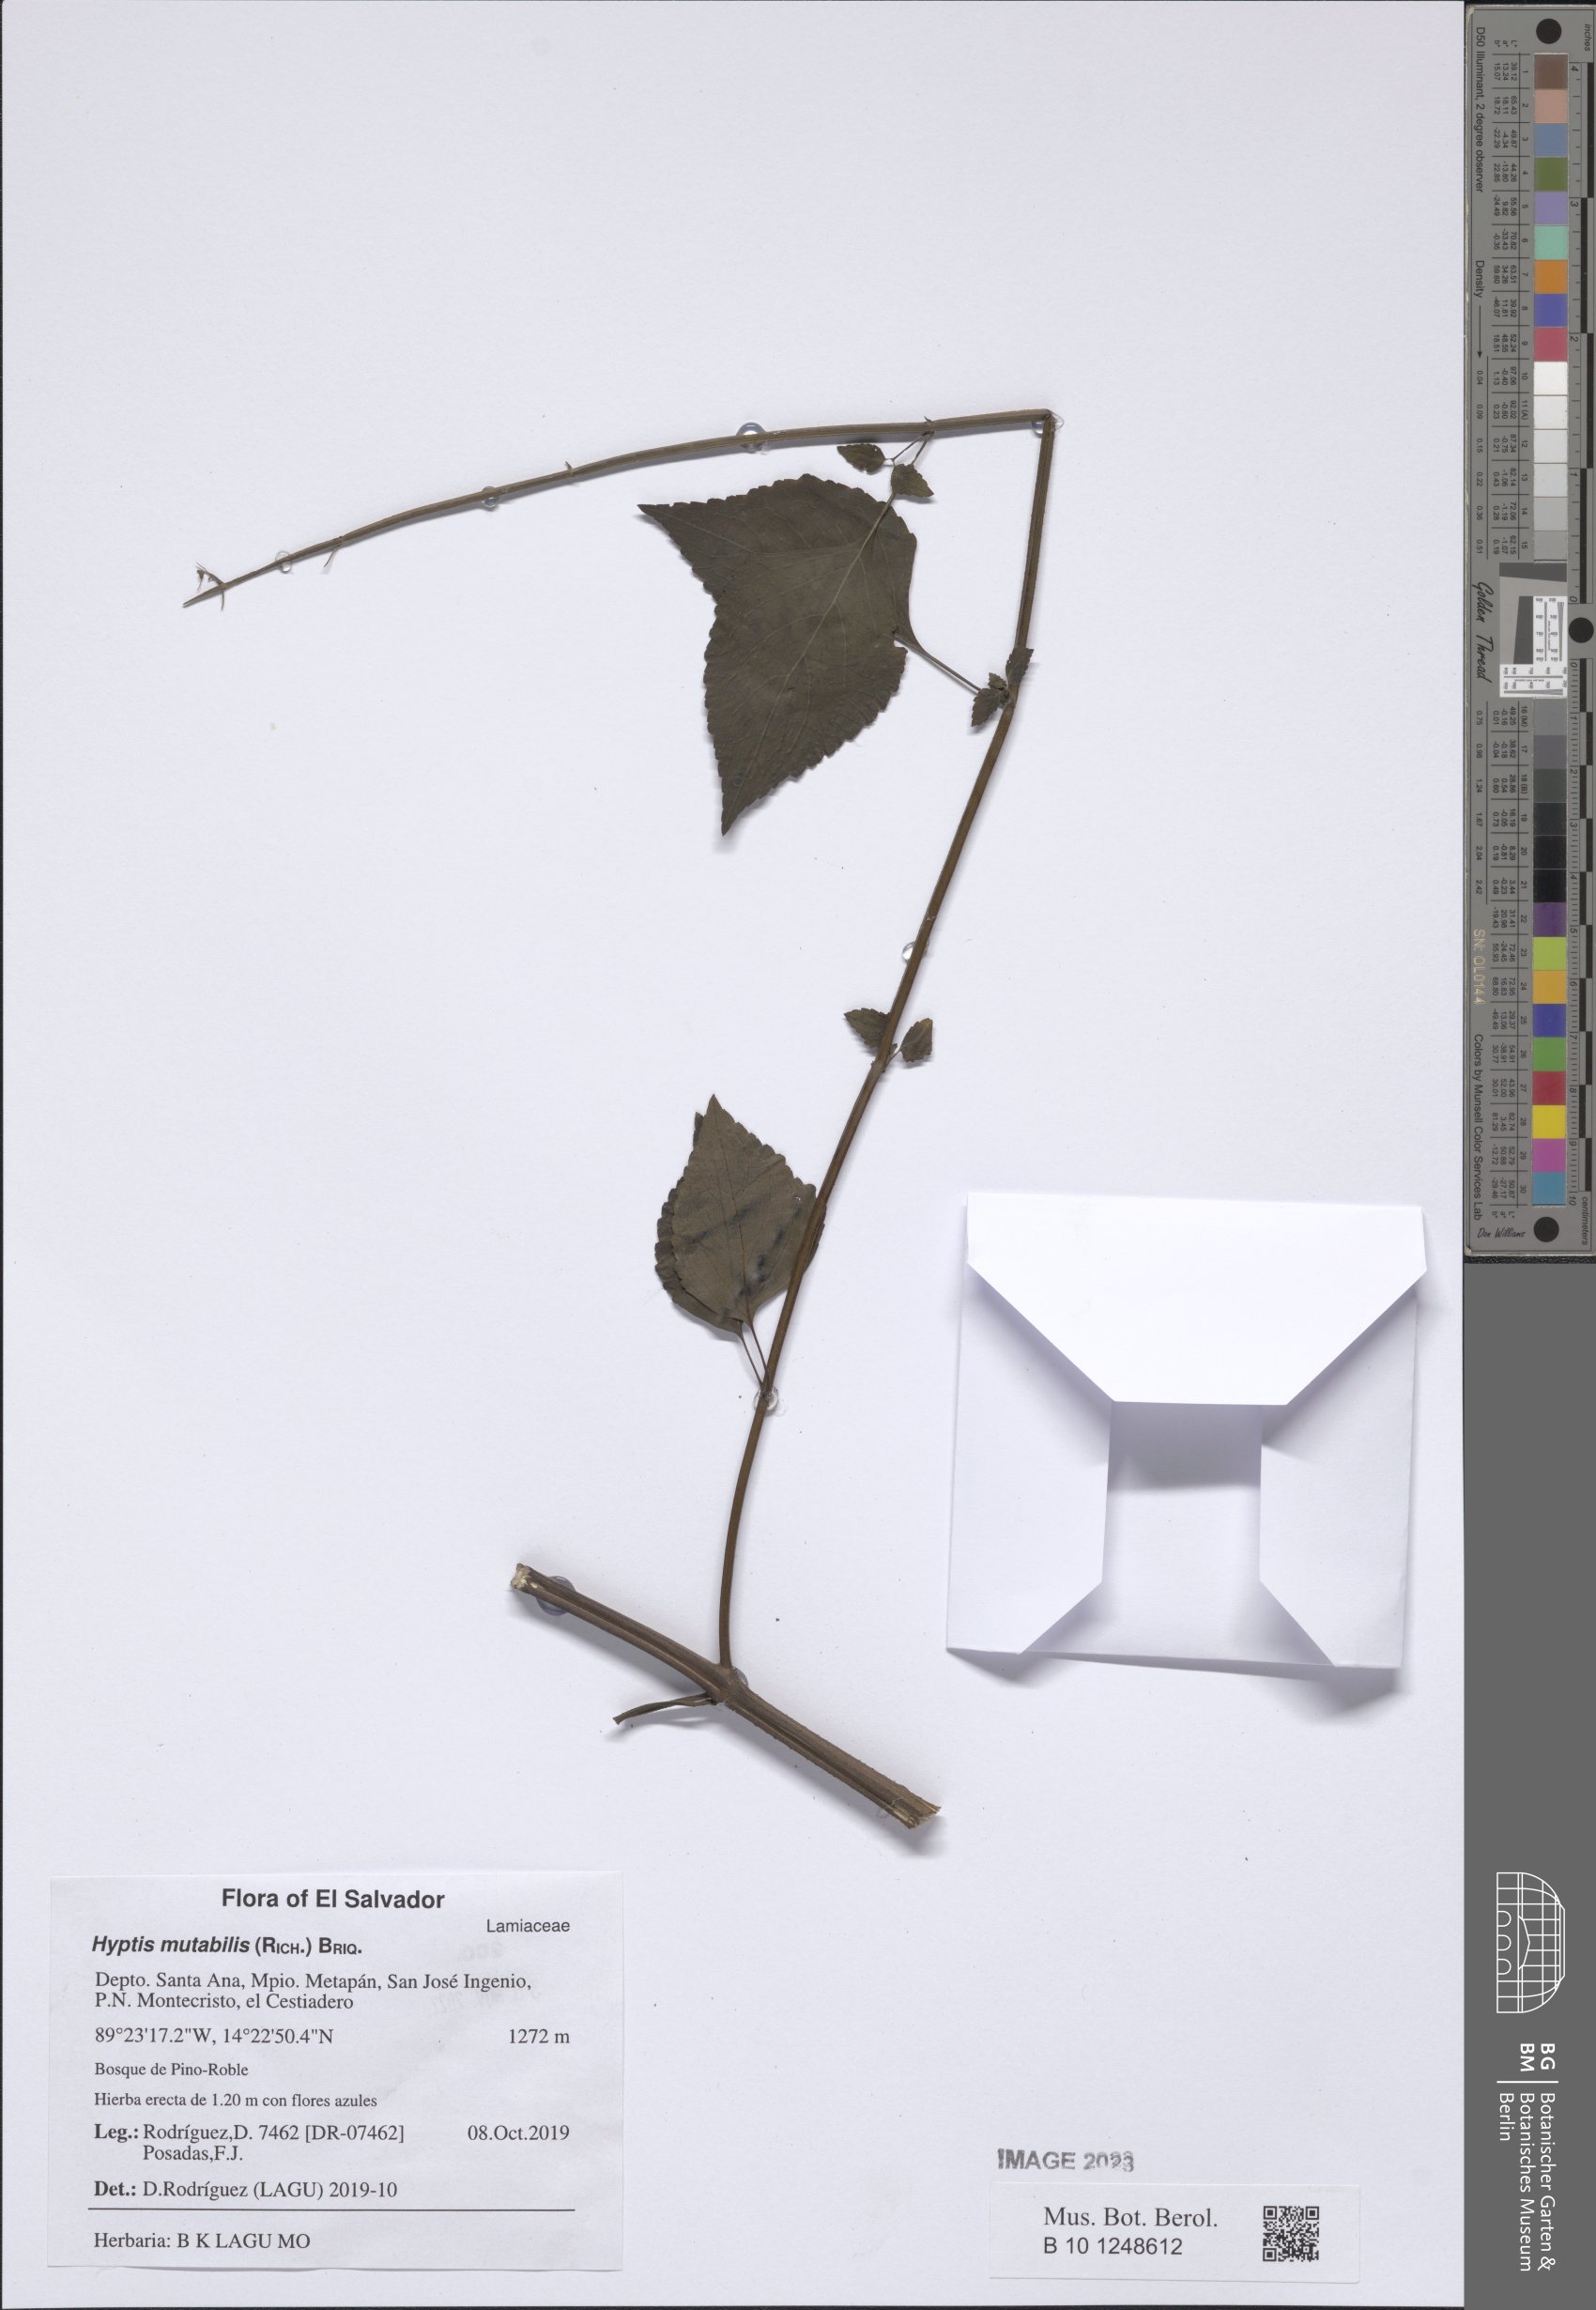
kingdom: Plantae
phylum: Tracheophyta
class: Magnoliopsida
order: Lamiales
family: Lamiaceae
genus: Cantinoa
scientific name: Cantinoa mutabilis
